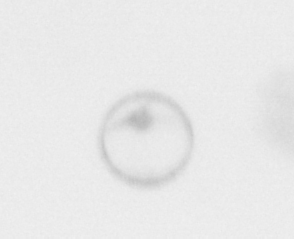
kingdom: Chromista
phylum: Ochrophyta
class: Bacillariophyceae
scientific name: Bacillariophyceae
